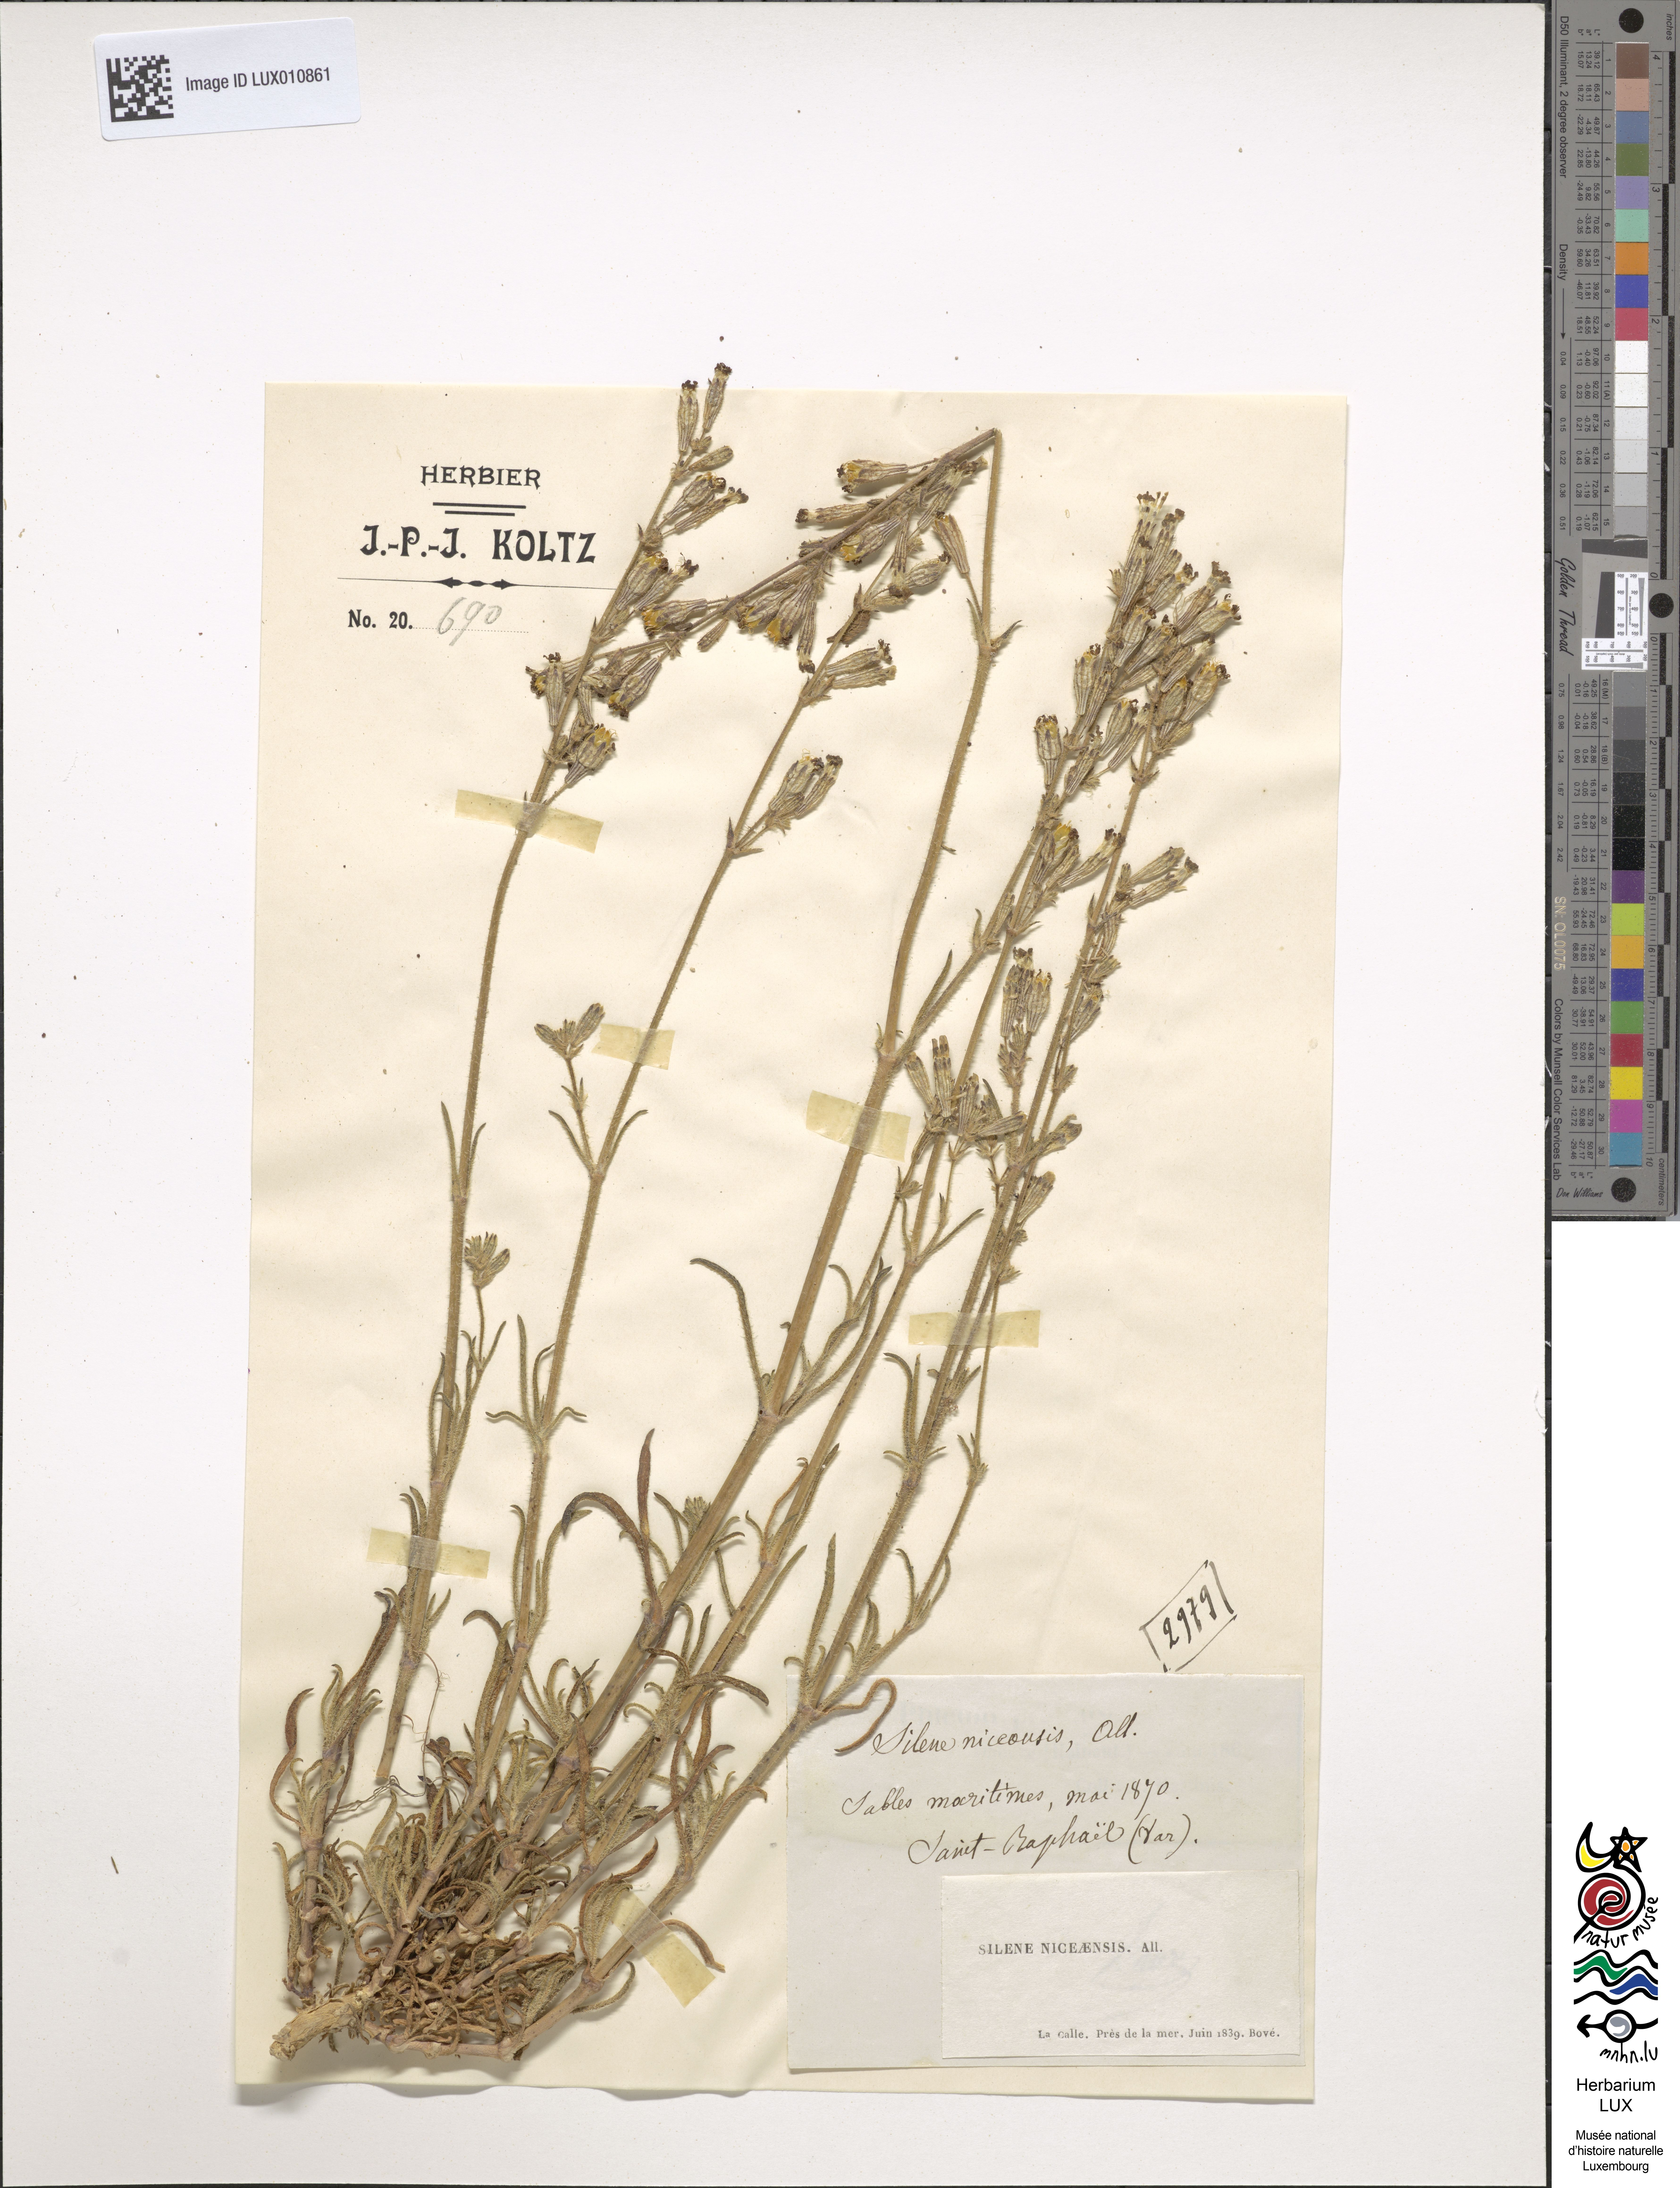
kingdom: Plantae
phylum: Tracheophyta
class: Magnoliopsida
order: Caryophyllales
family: Caryophyllaceae
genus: Silene
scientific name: Silene nicaeensis
